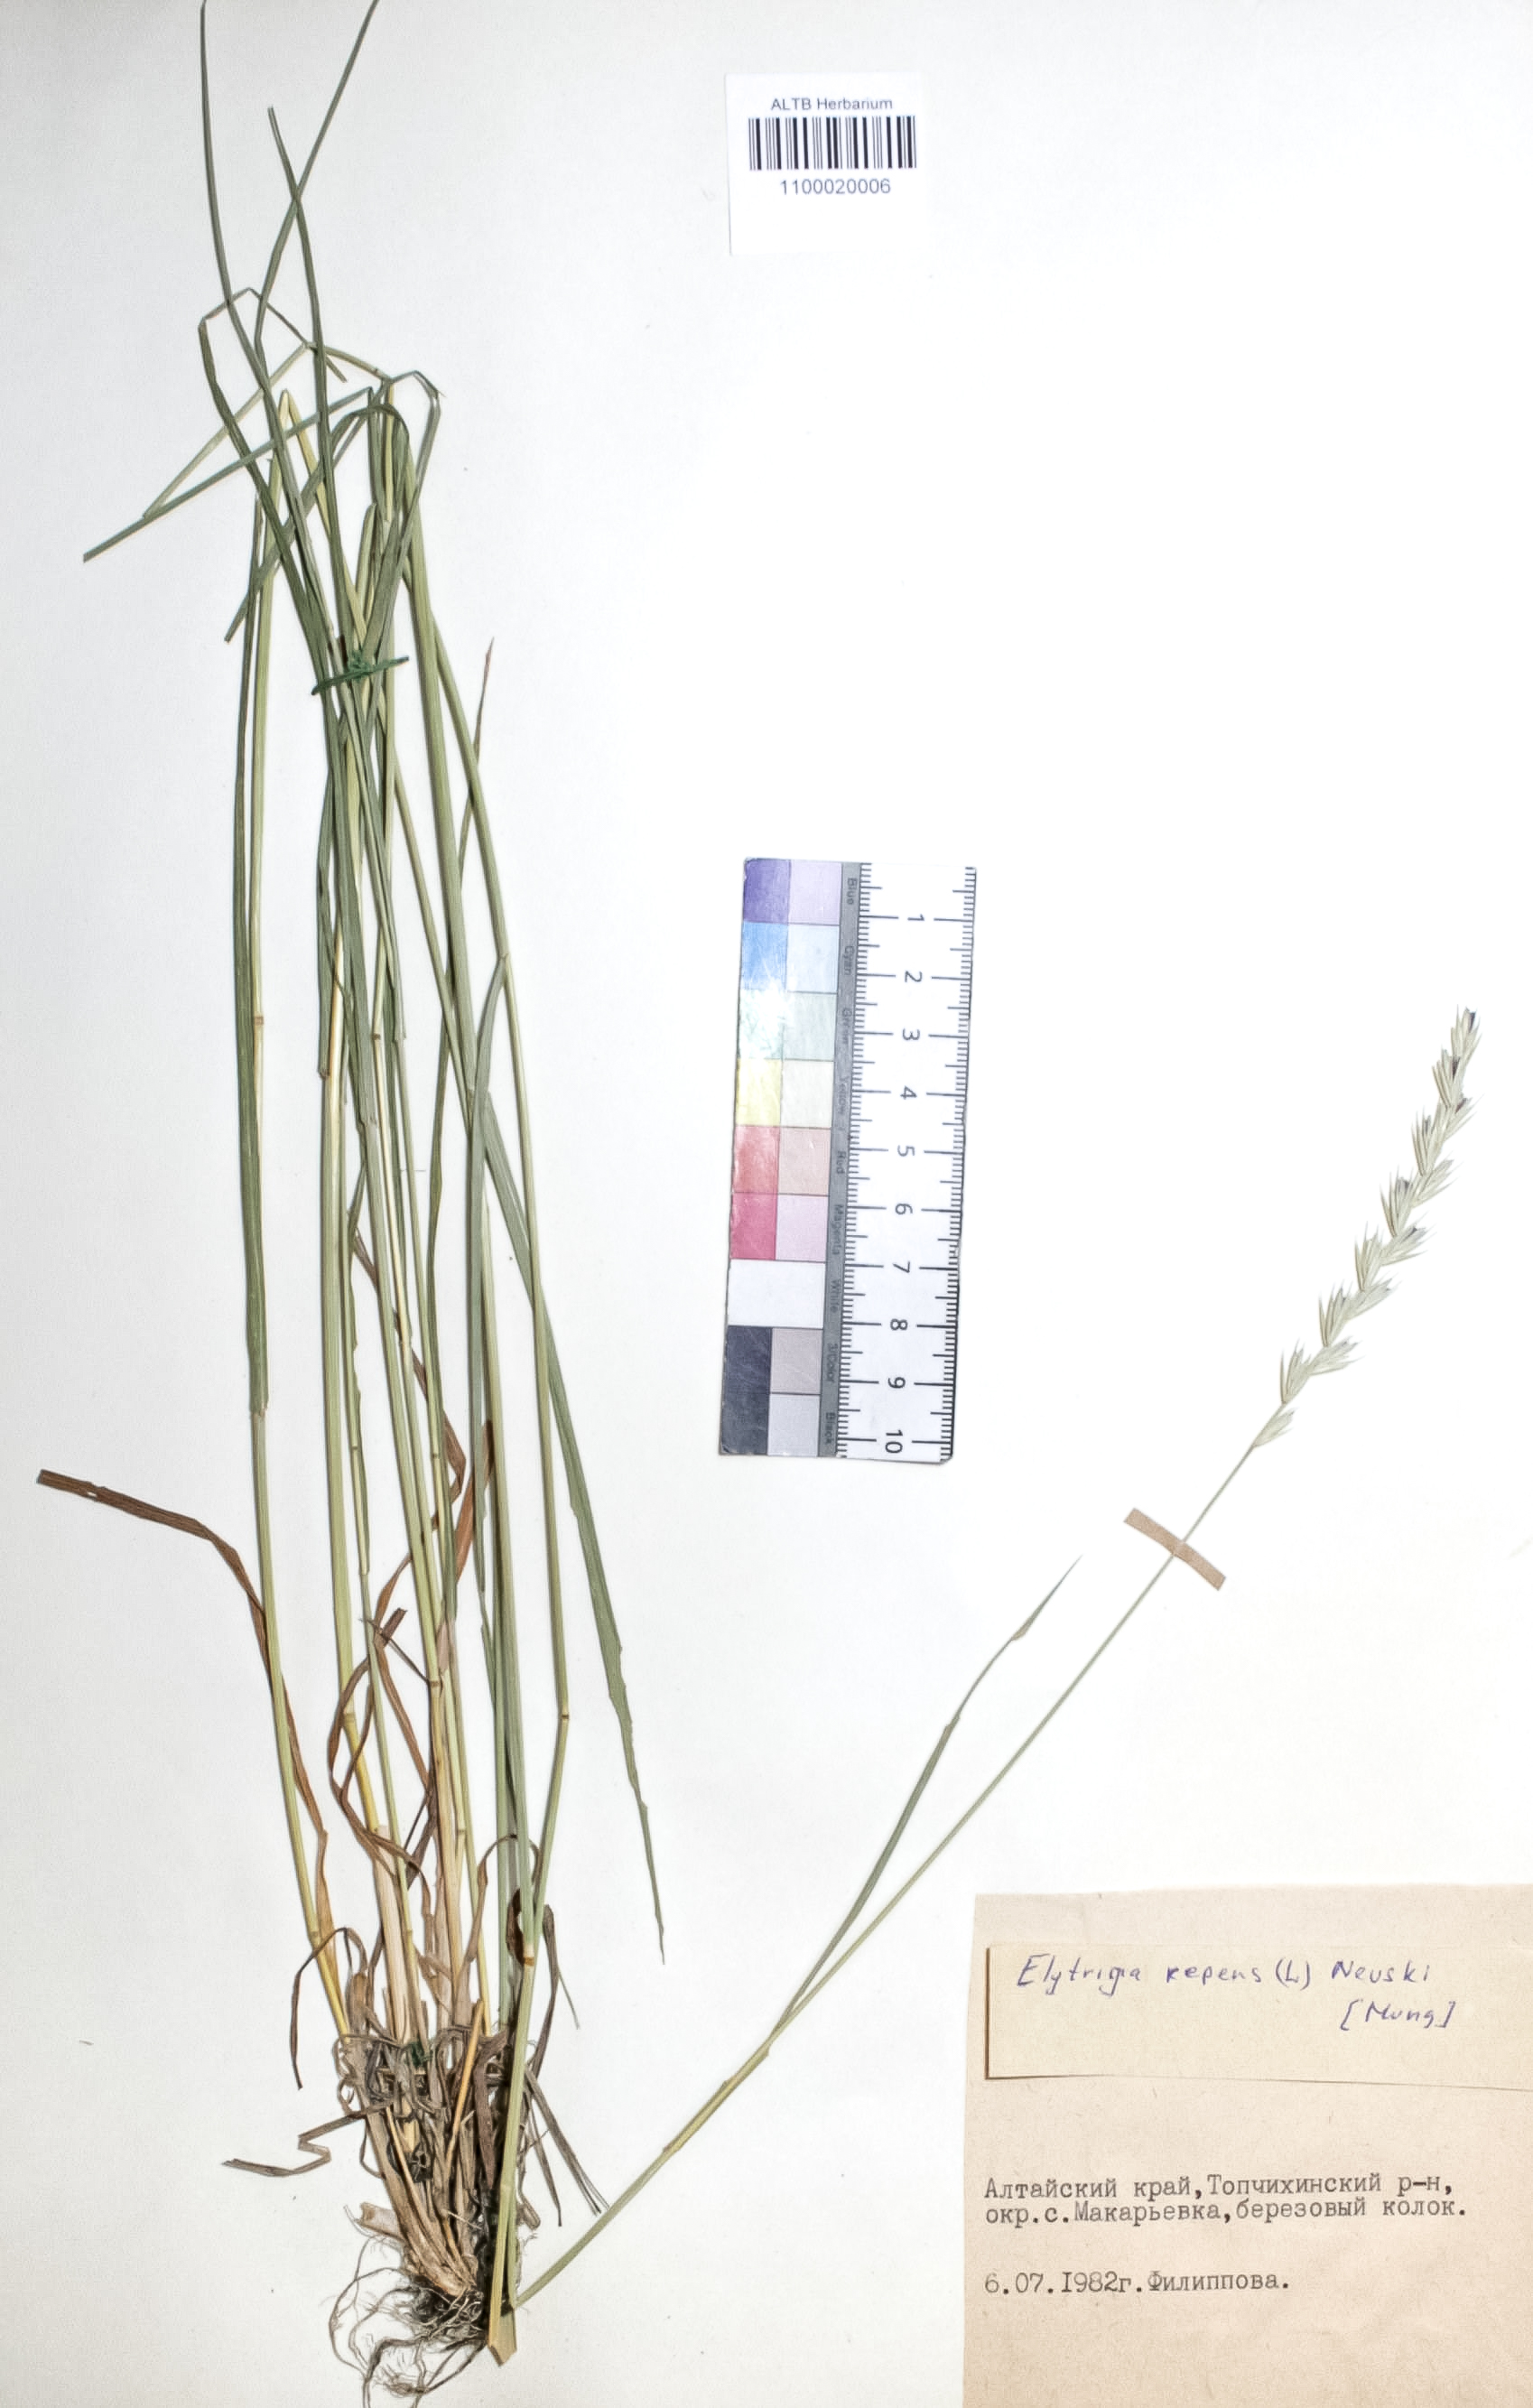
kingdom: Plantae
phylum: Tracheophyta
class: Liliopsida
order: Poales
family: Poaceae
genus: Elymus
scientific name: Elymus repens
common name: Quackgrass
